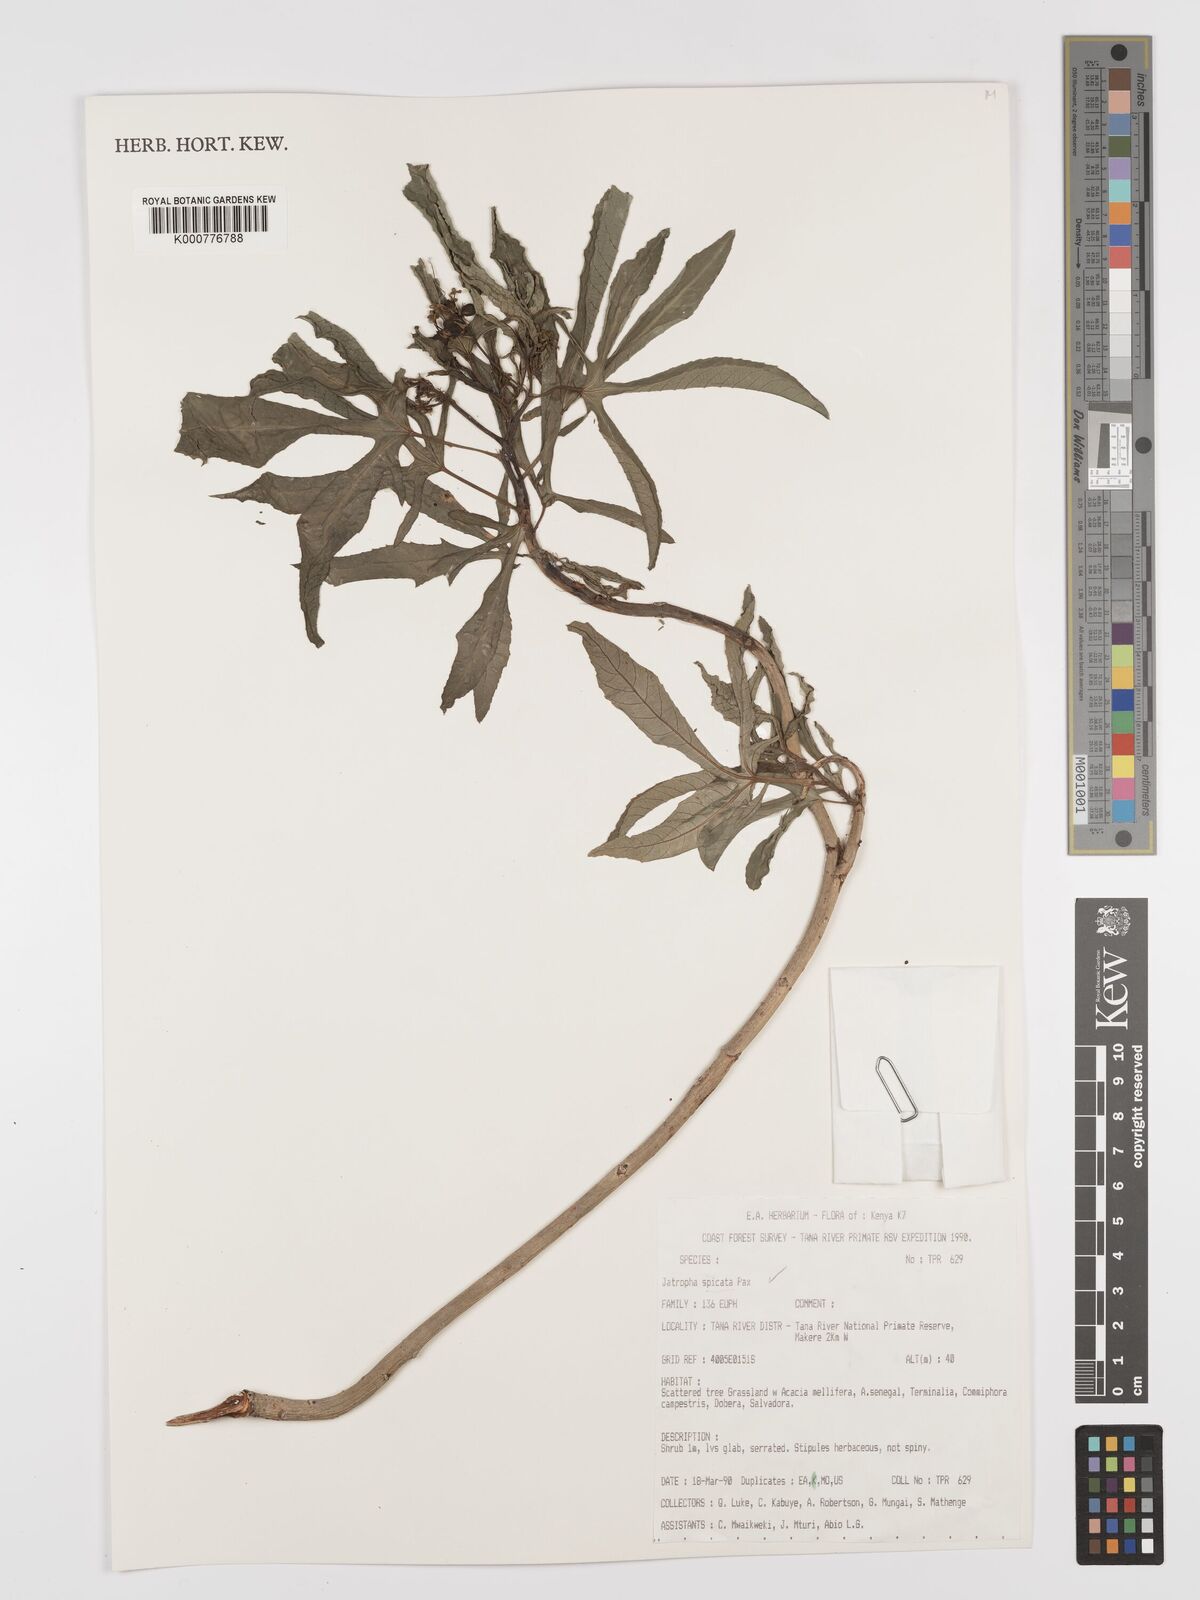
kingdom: Plantae
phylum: Tracheophyta
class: Magnoliopsida
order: Malpighiales
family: Euphorbiaceae
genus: Jatropha
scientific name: Jatropha spicata
